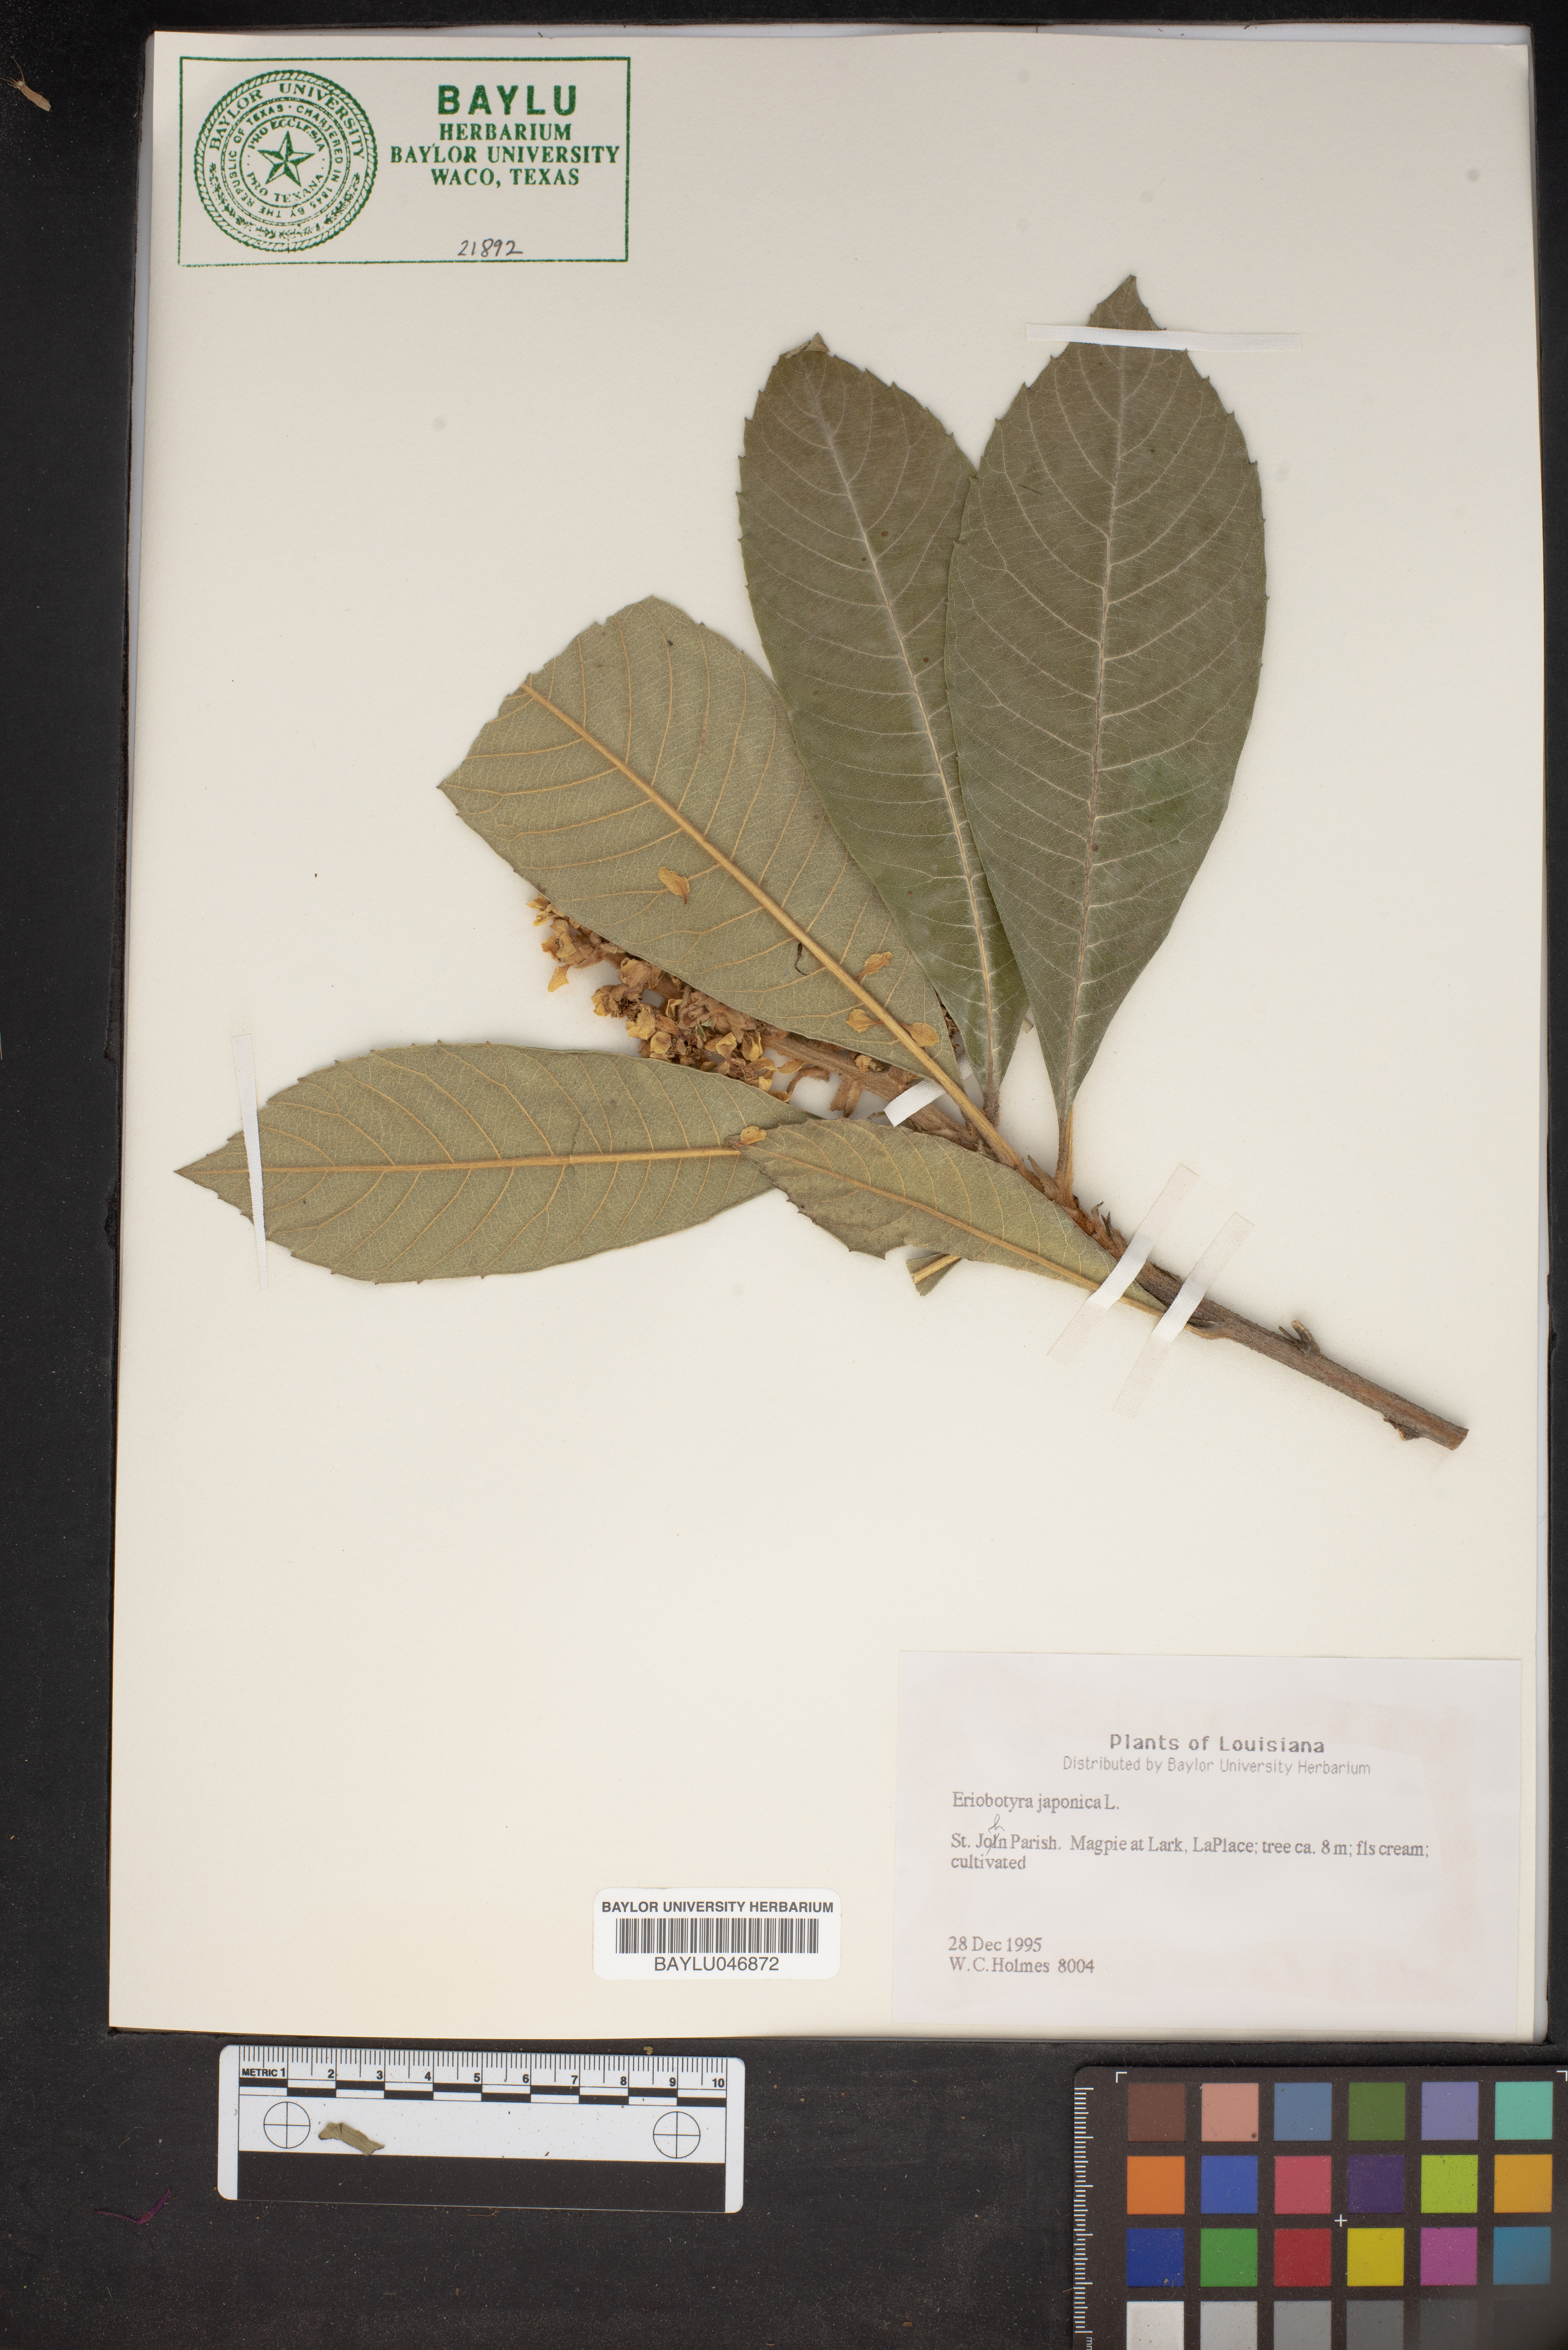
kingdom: Plantae
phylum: Tracheophyta
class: Magnoliopsida
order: Rosales
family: Rosaceae
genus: Rhaphiolepis
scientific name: Rhaphiolepis bibas
